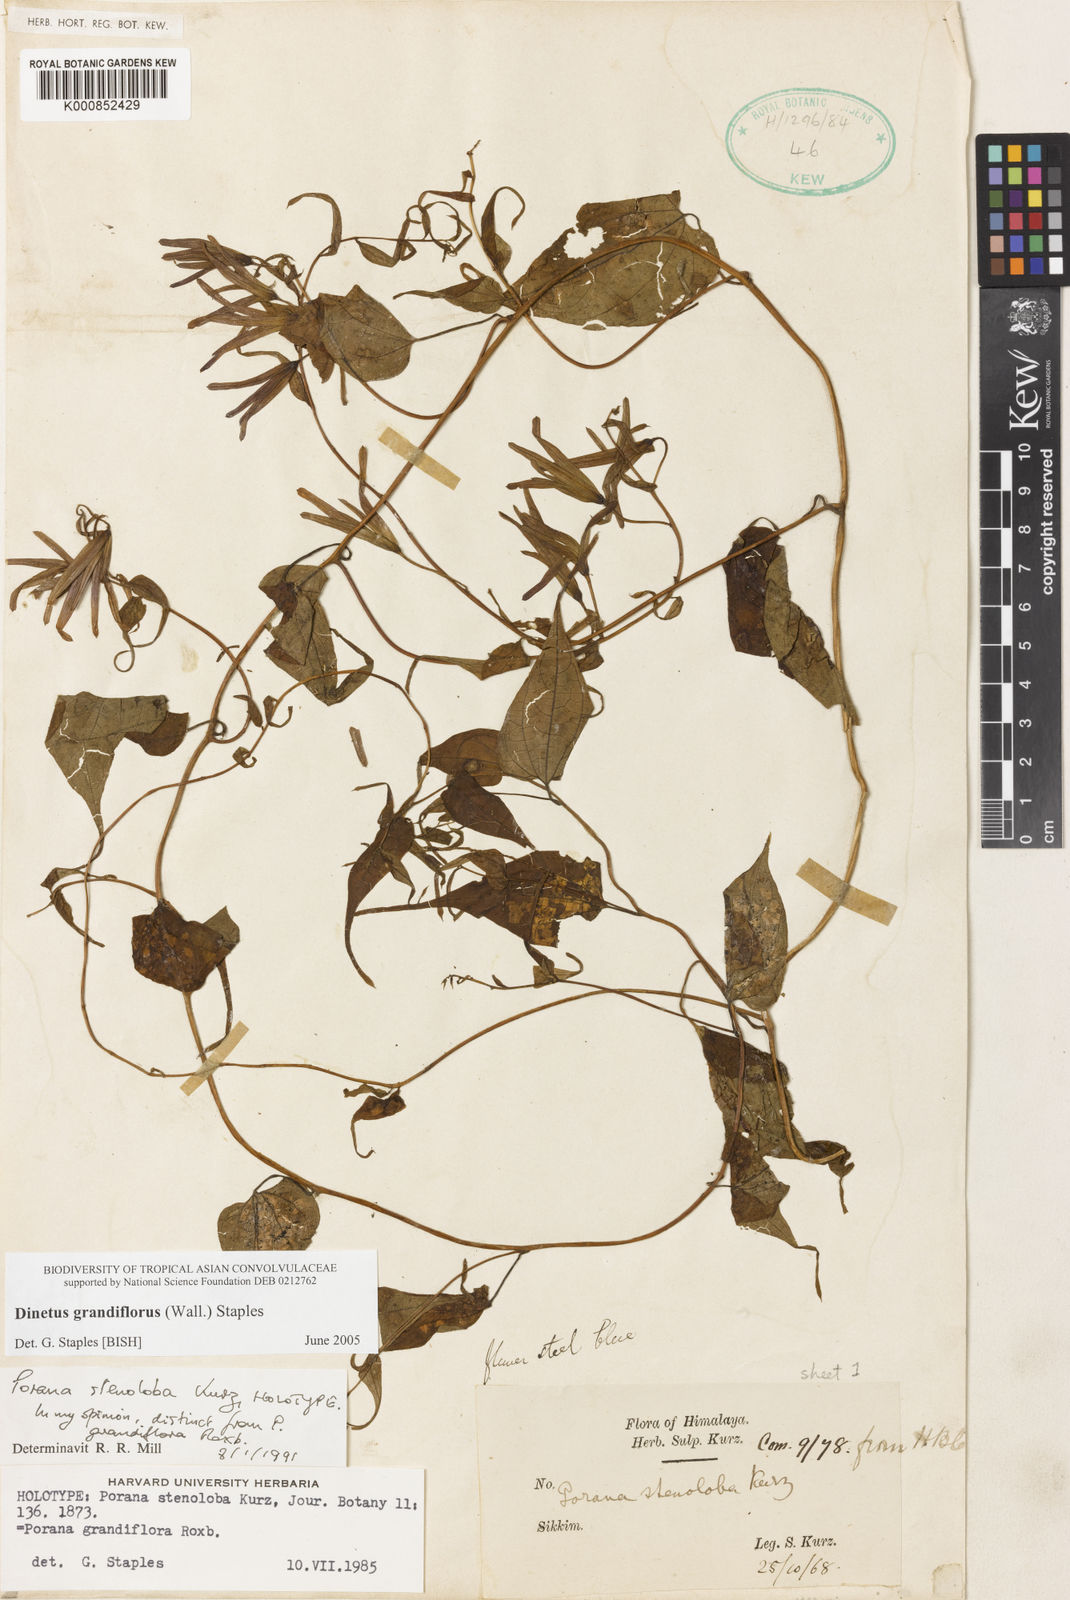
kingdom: Plantae
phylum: Tracheophyta
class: Magnoliopsida
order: Solanales
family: Convolvulaceae
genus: Porana
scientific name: Porana
